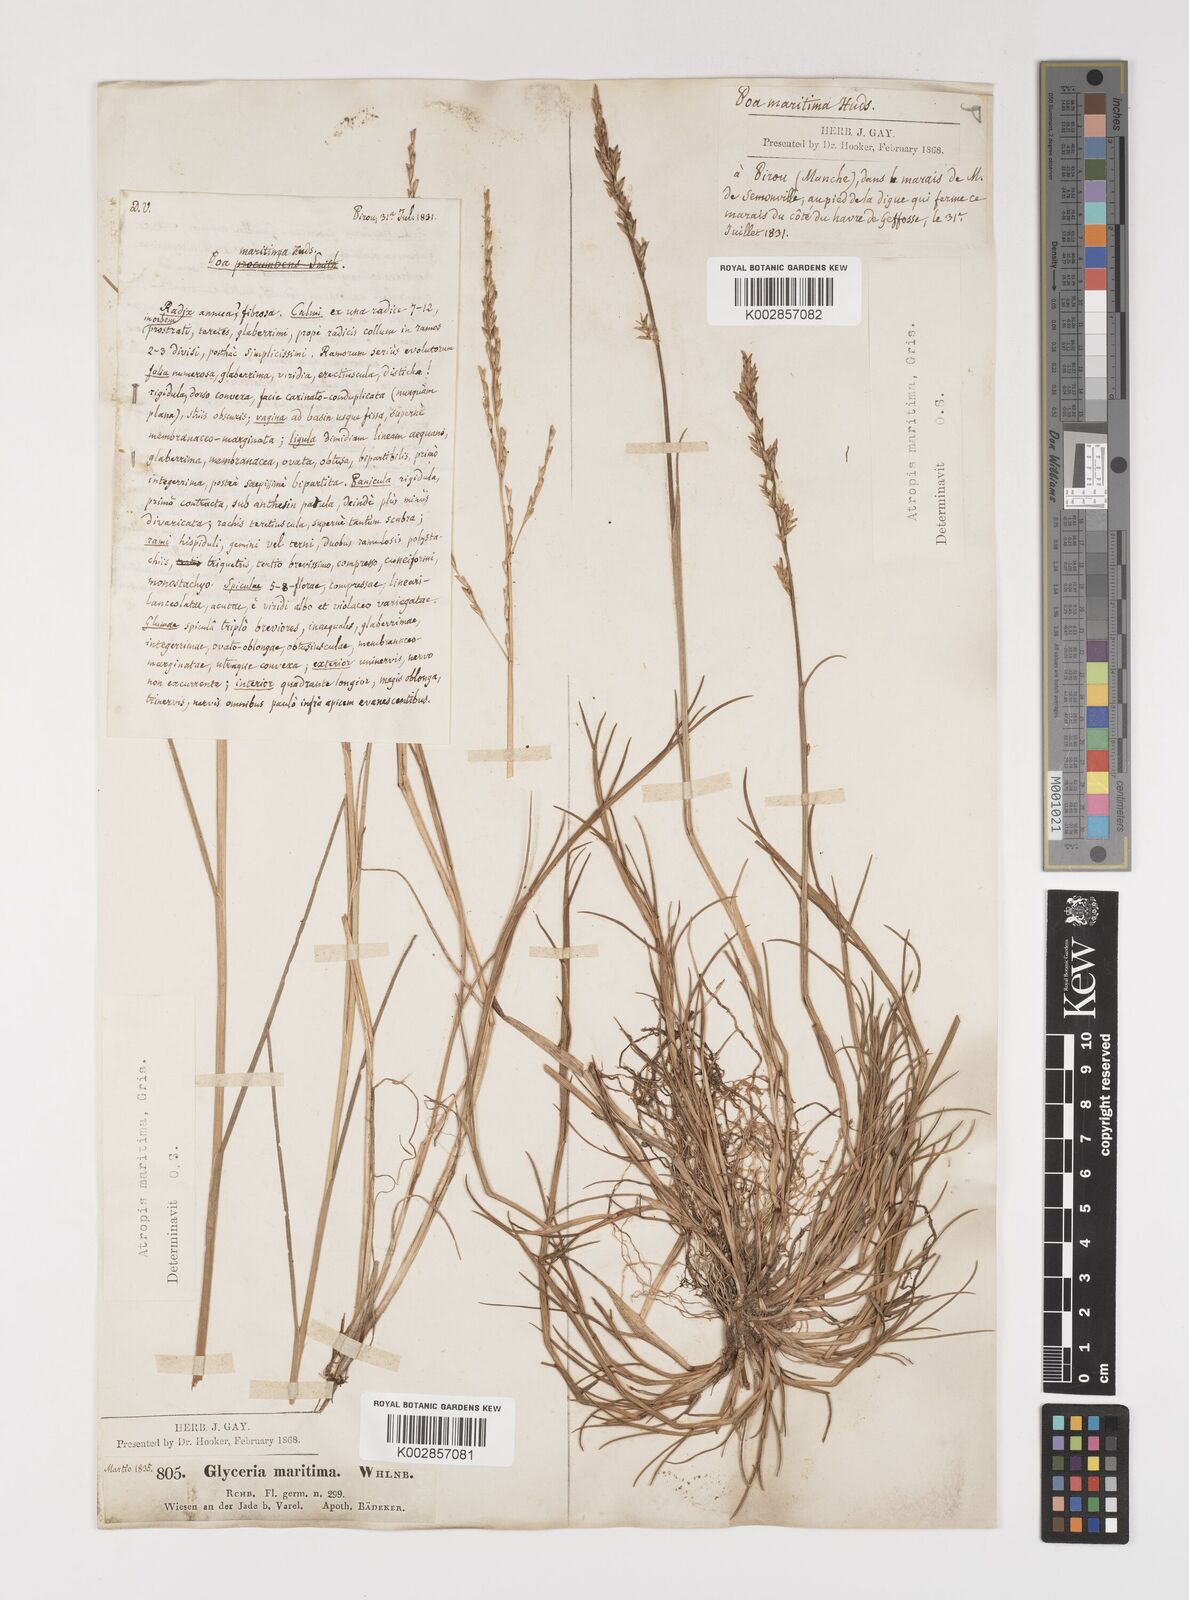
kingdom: Plantae
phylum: Tracheophyta
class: Liliopsida
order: Poales
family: Poaceae
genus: Puccinellia
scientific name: Puccinellia maritima
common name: Common saltmarsh grass
